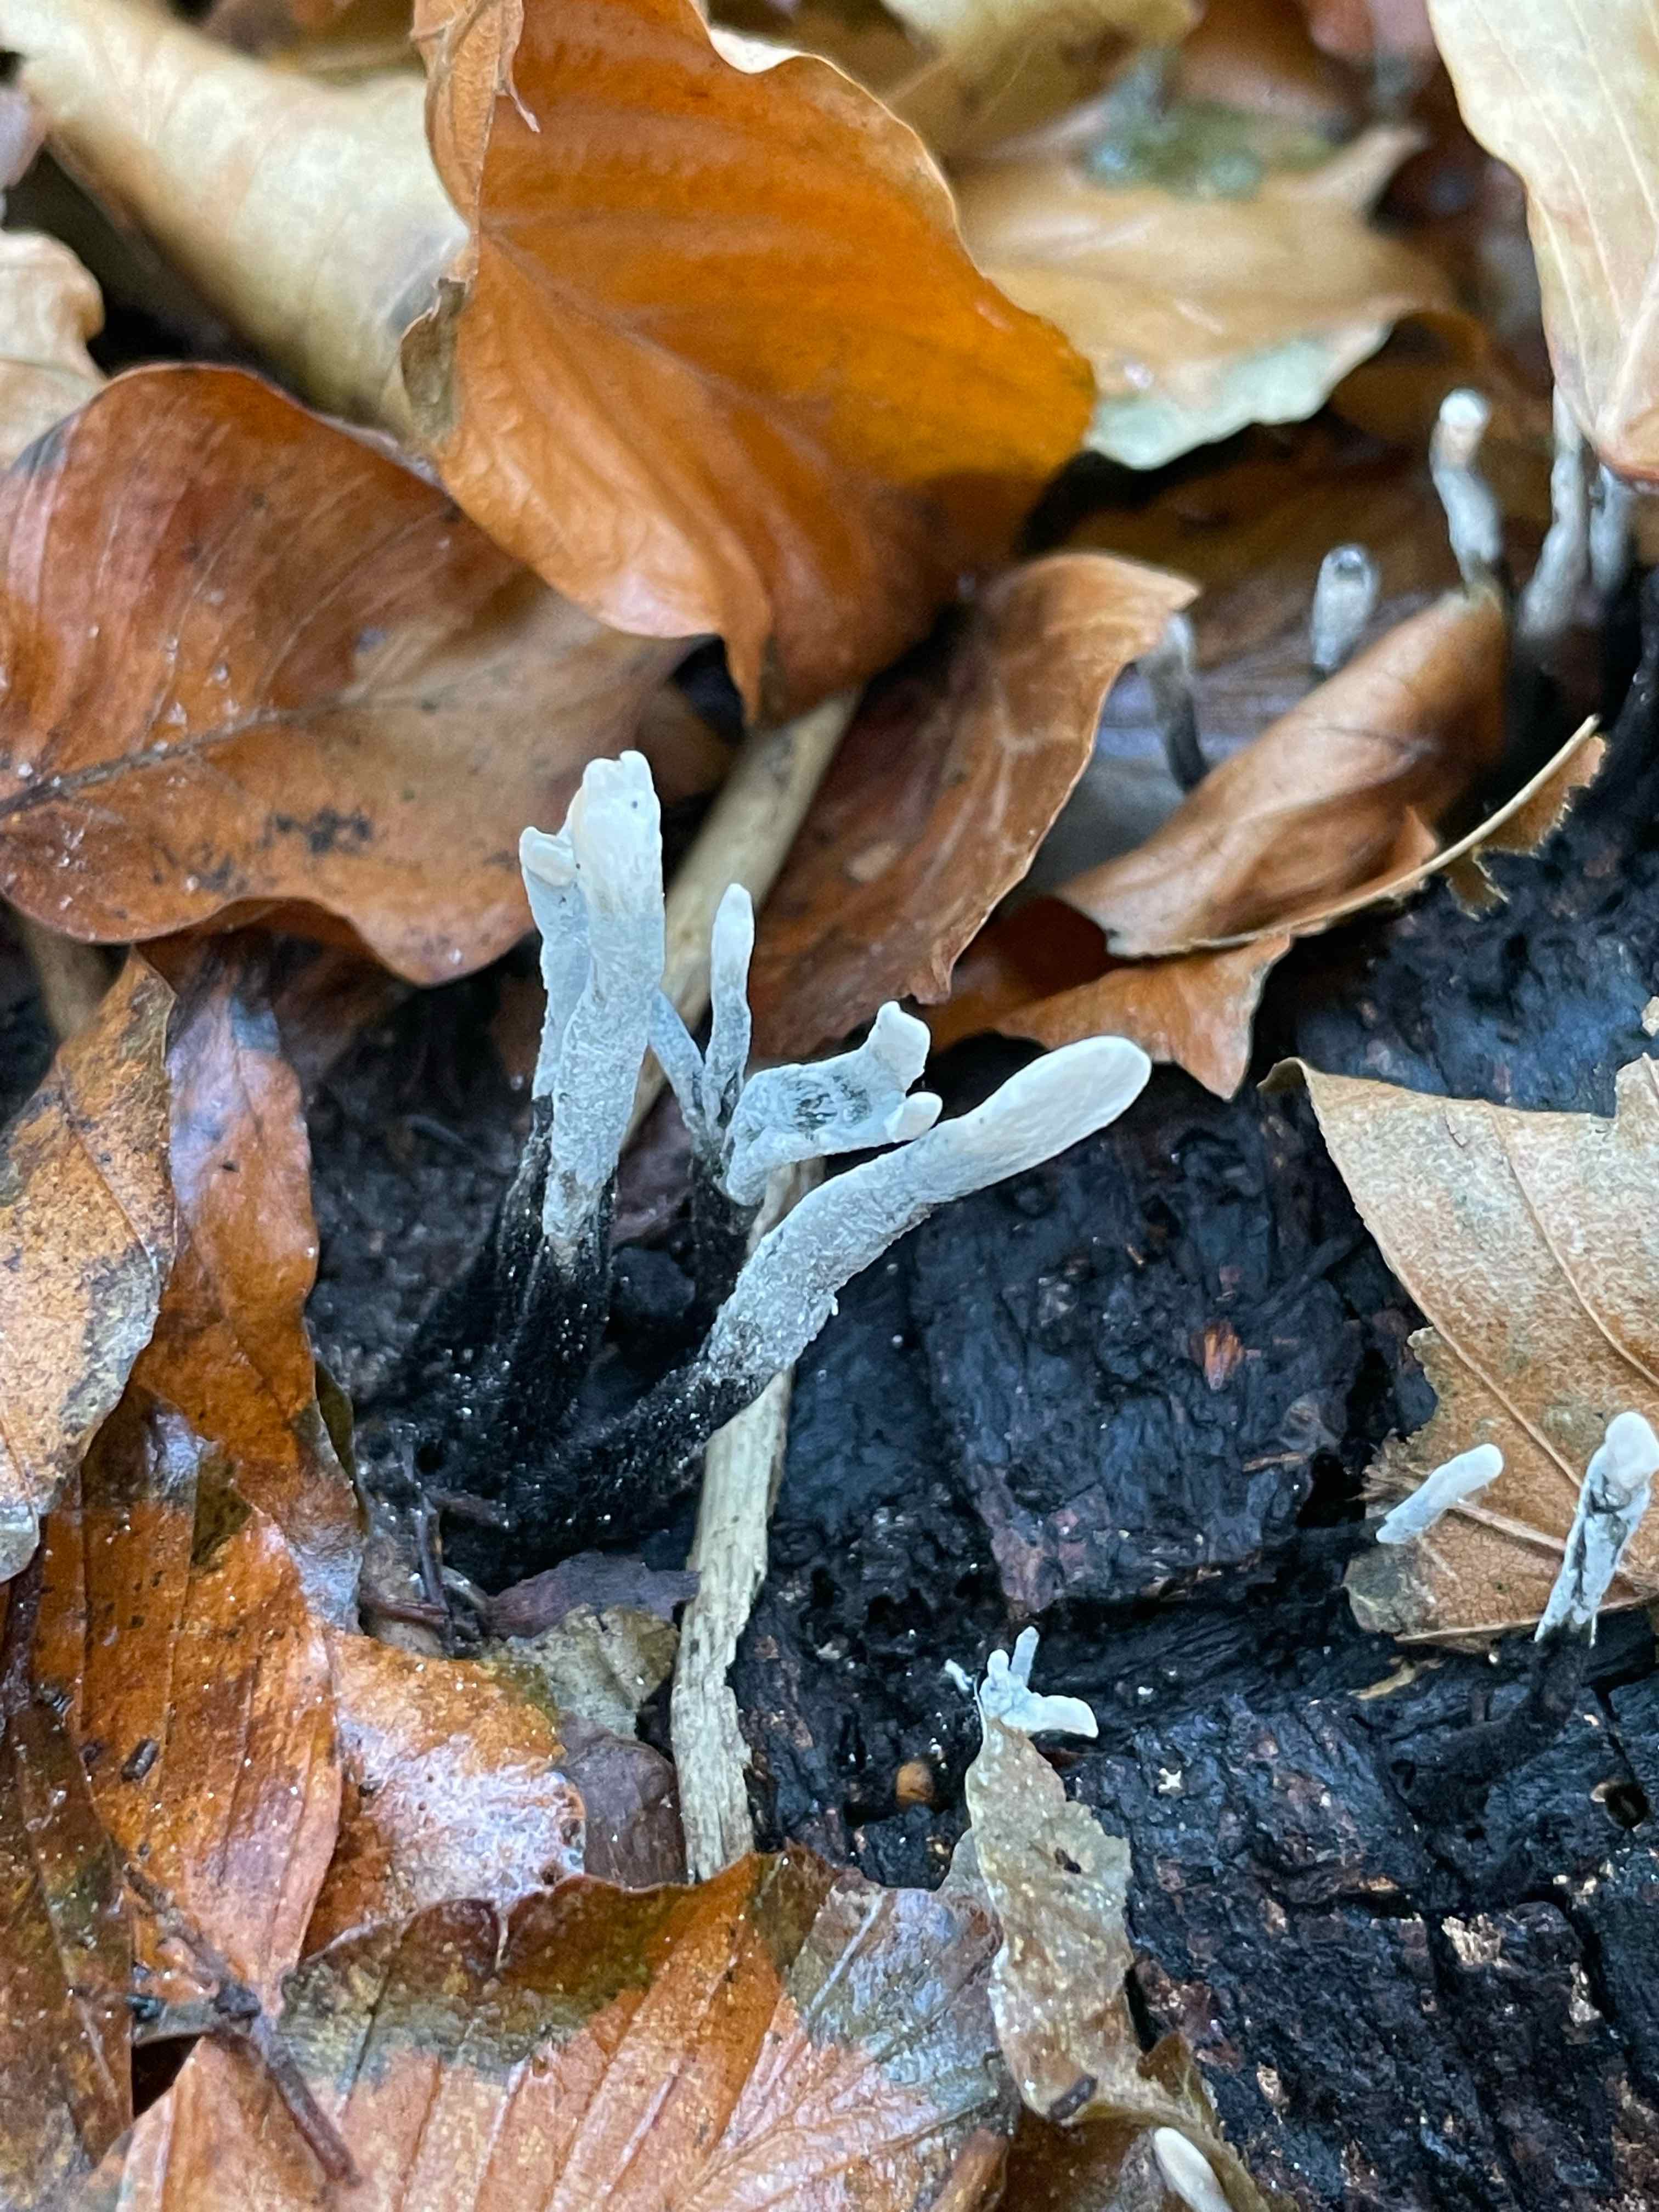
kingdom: Fungi
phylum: Ascomycota
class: Sordariomycetes
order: Xylariales
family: Xylariaceae
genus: Xylaria
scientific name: Xylaria hypoxylon
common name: grenet stødsvamp
